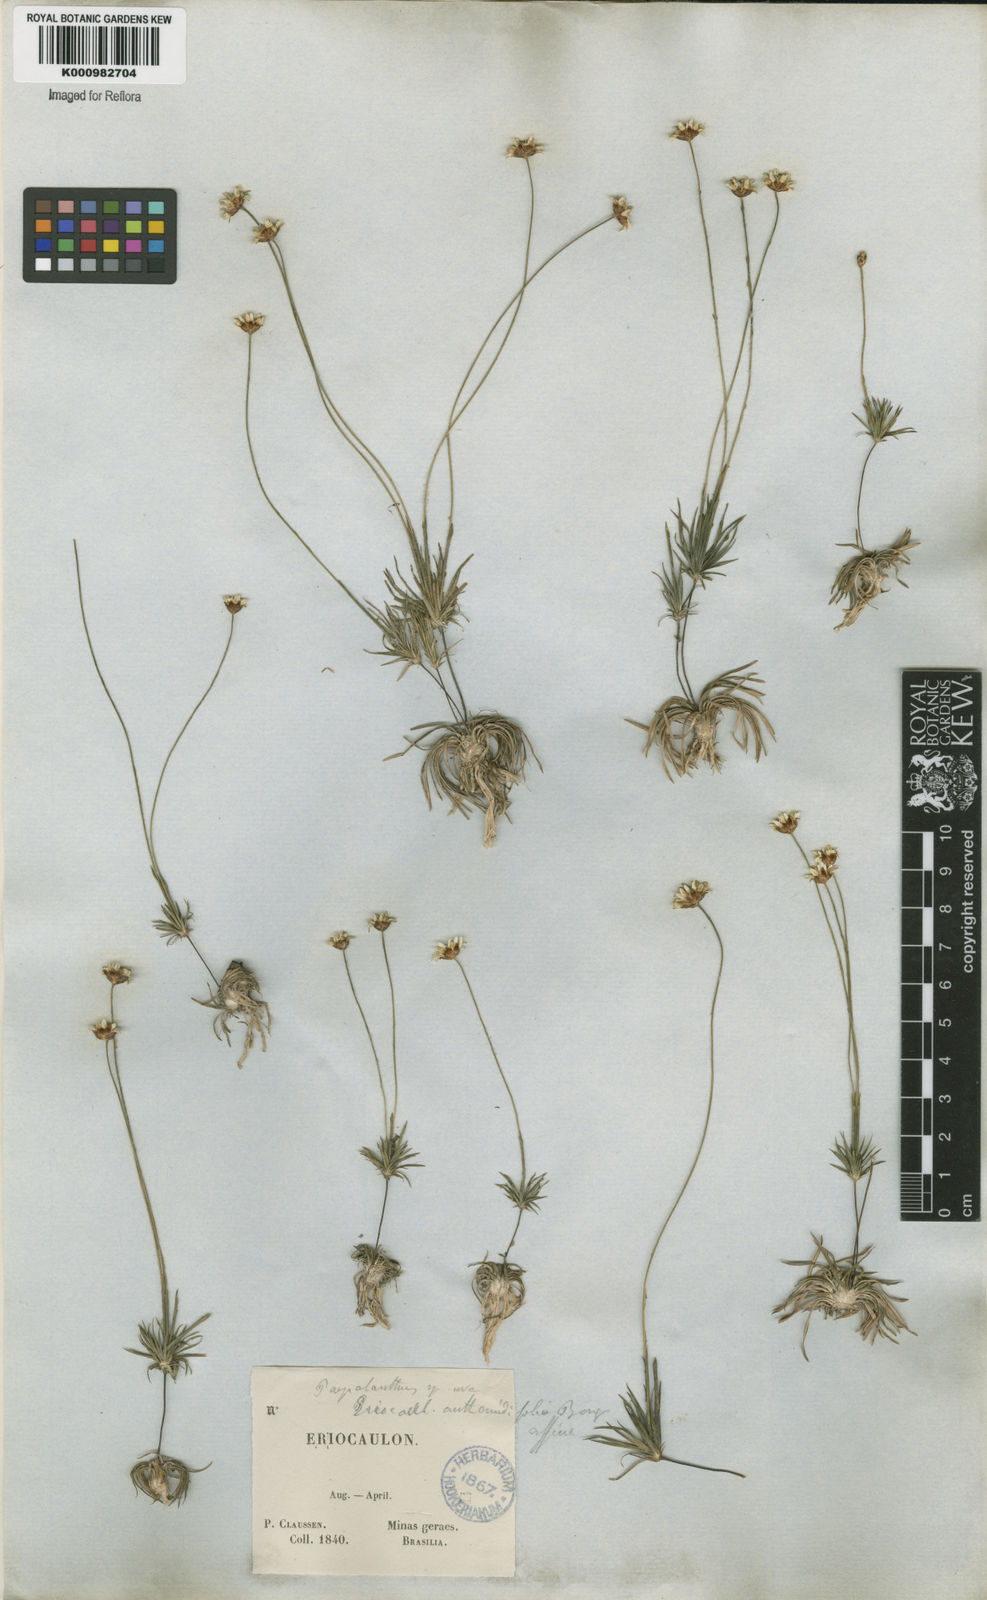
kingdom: Plantae
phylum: Tracheophyta
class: Liliopsida
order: Poales
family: Eriocaulaceae
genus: Syngonanthus
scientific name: Syngonanthus laricifolius
